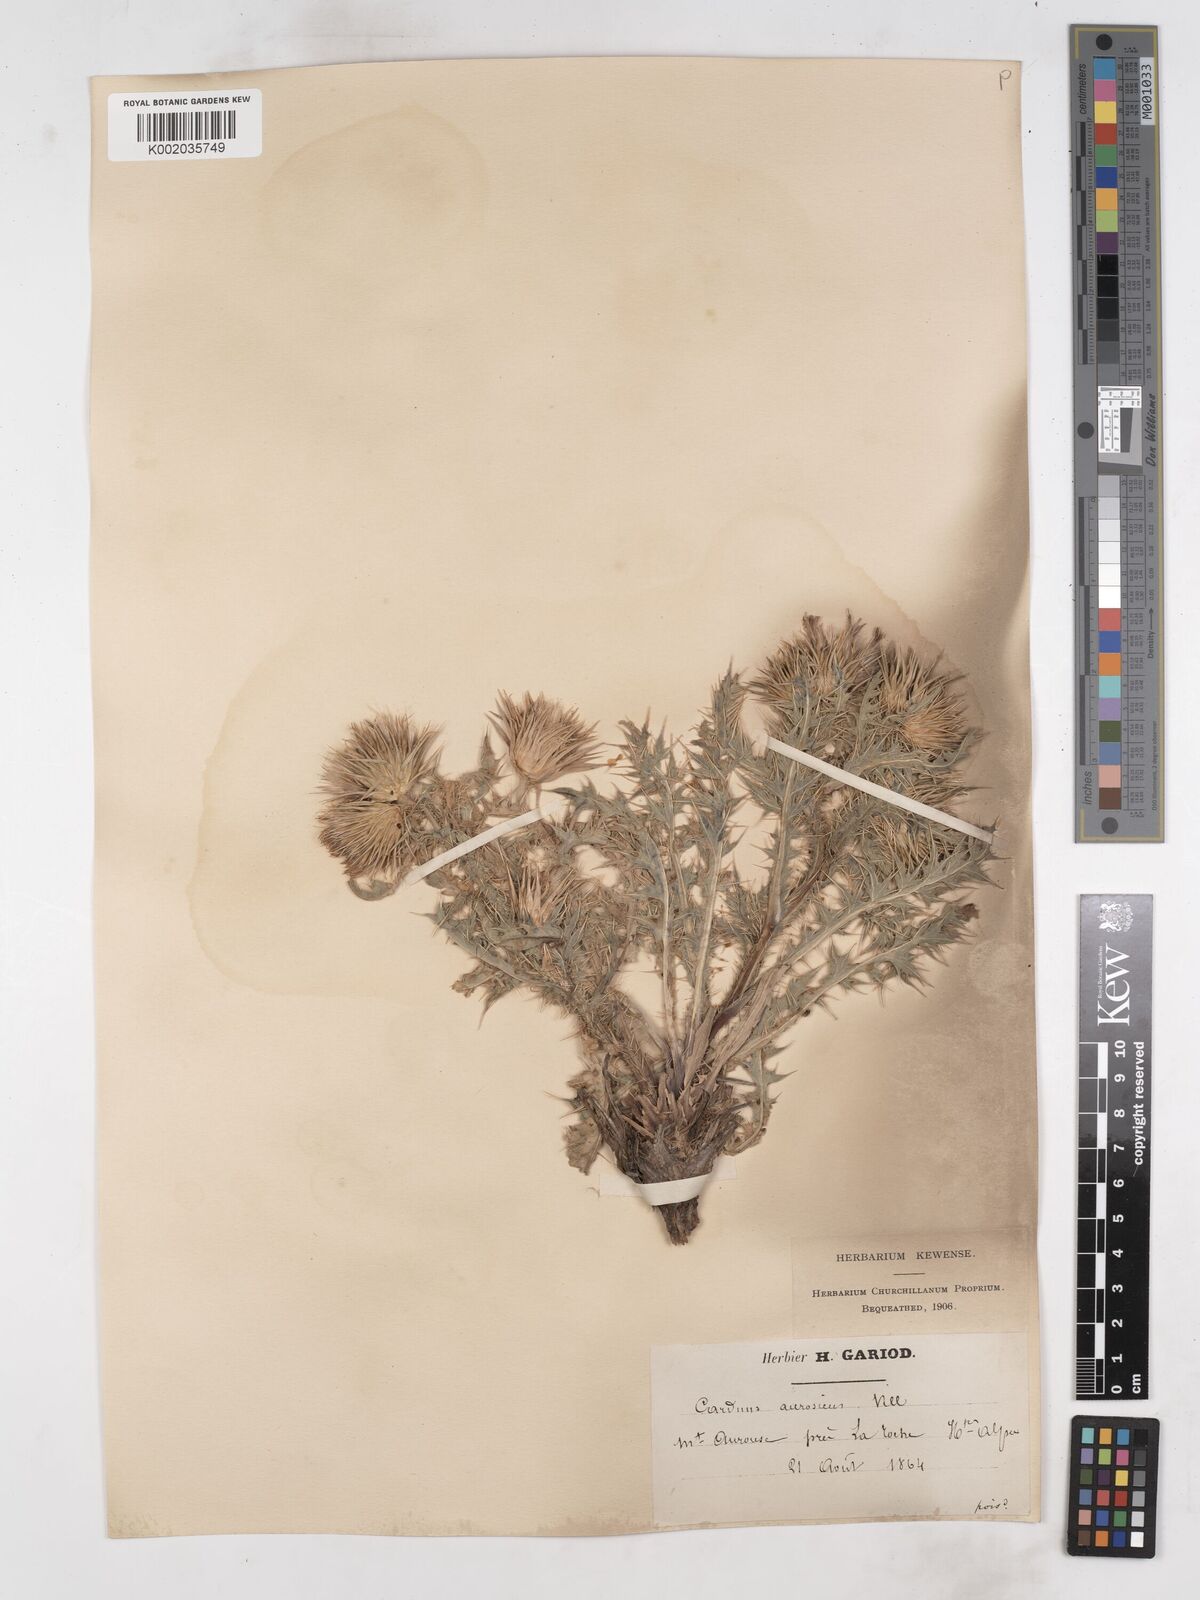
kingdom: Plantae
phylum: Tracheophyta
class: Magnoliopsida
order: Asterales
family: Asteraceae
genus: Carduus
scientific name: Carduus aurosicus
